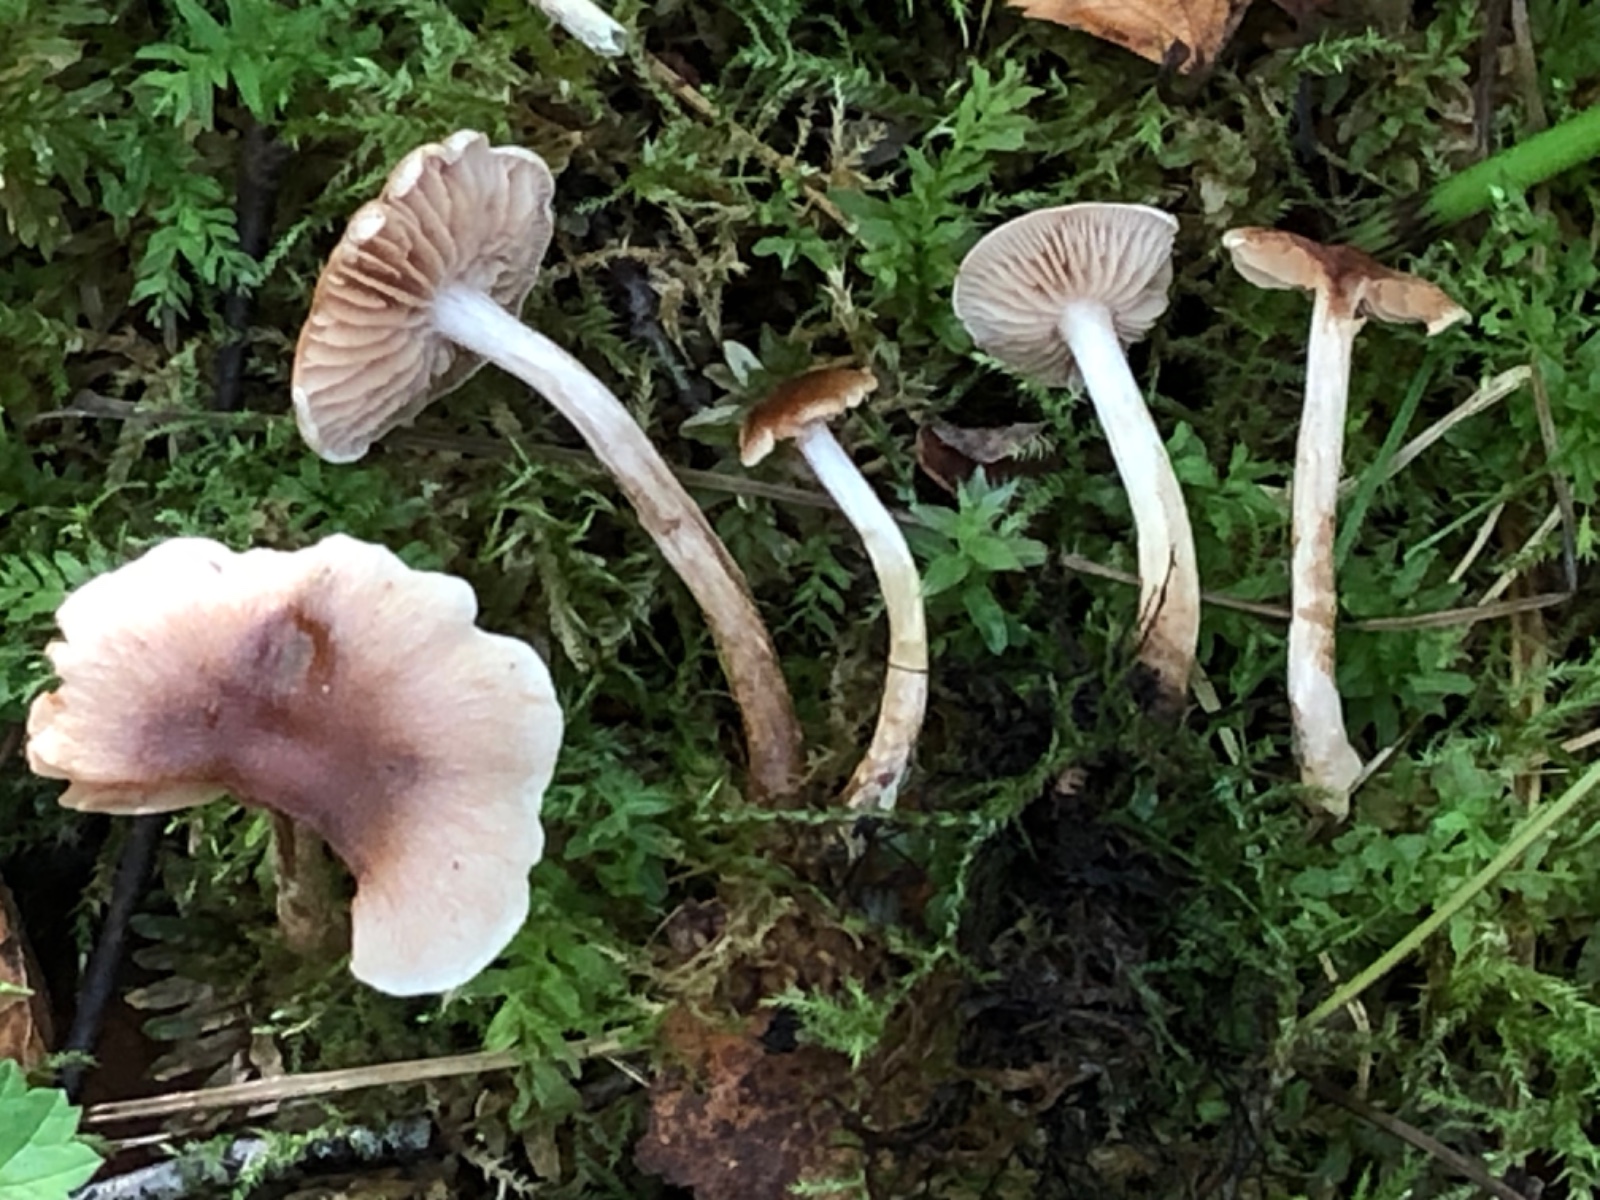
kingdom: Fungi
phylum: Basidiomycota
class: Agaricomycetes
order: Agaricales
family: Hymenogastraceae
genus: Hebeloma
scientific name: Hebeloma
